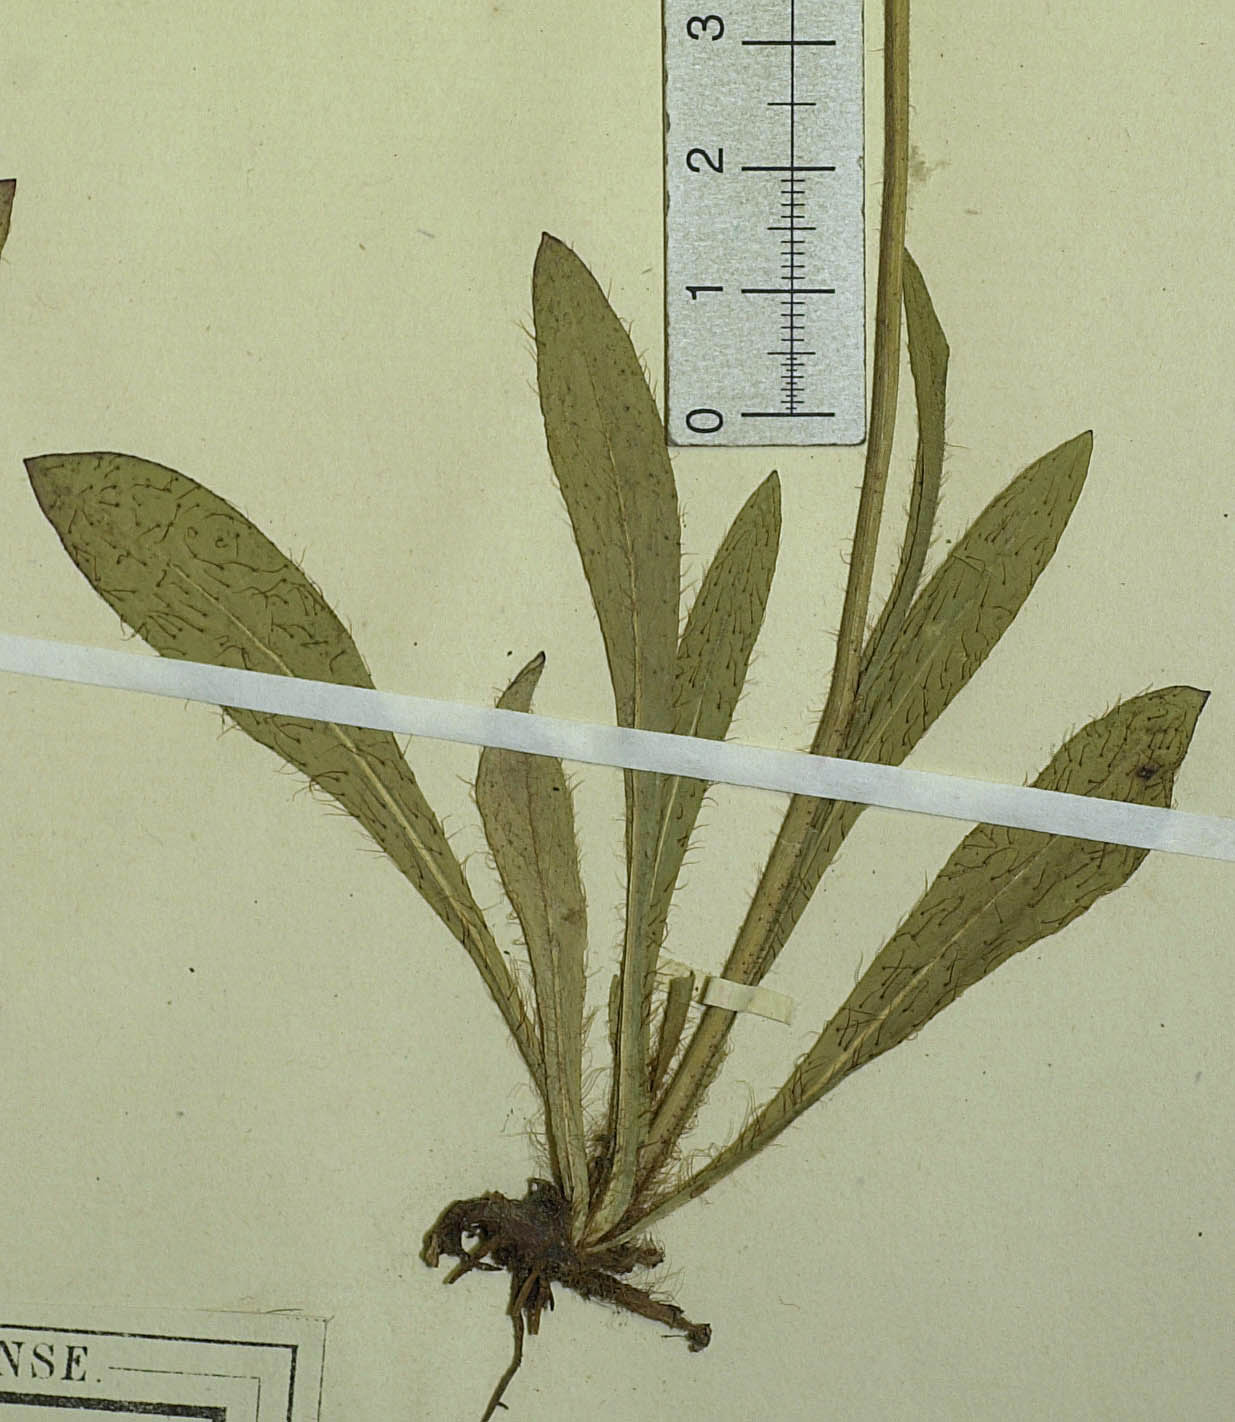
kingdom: Plantae
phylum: Tracheophyta
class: Magnoliopsida
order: Asterales
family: Asteraceae
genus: Pilosella
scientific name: Pilosella chomatophila
